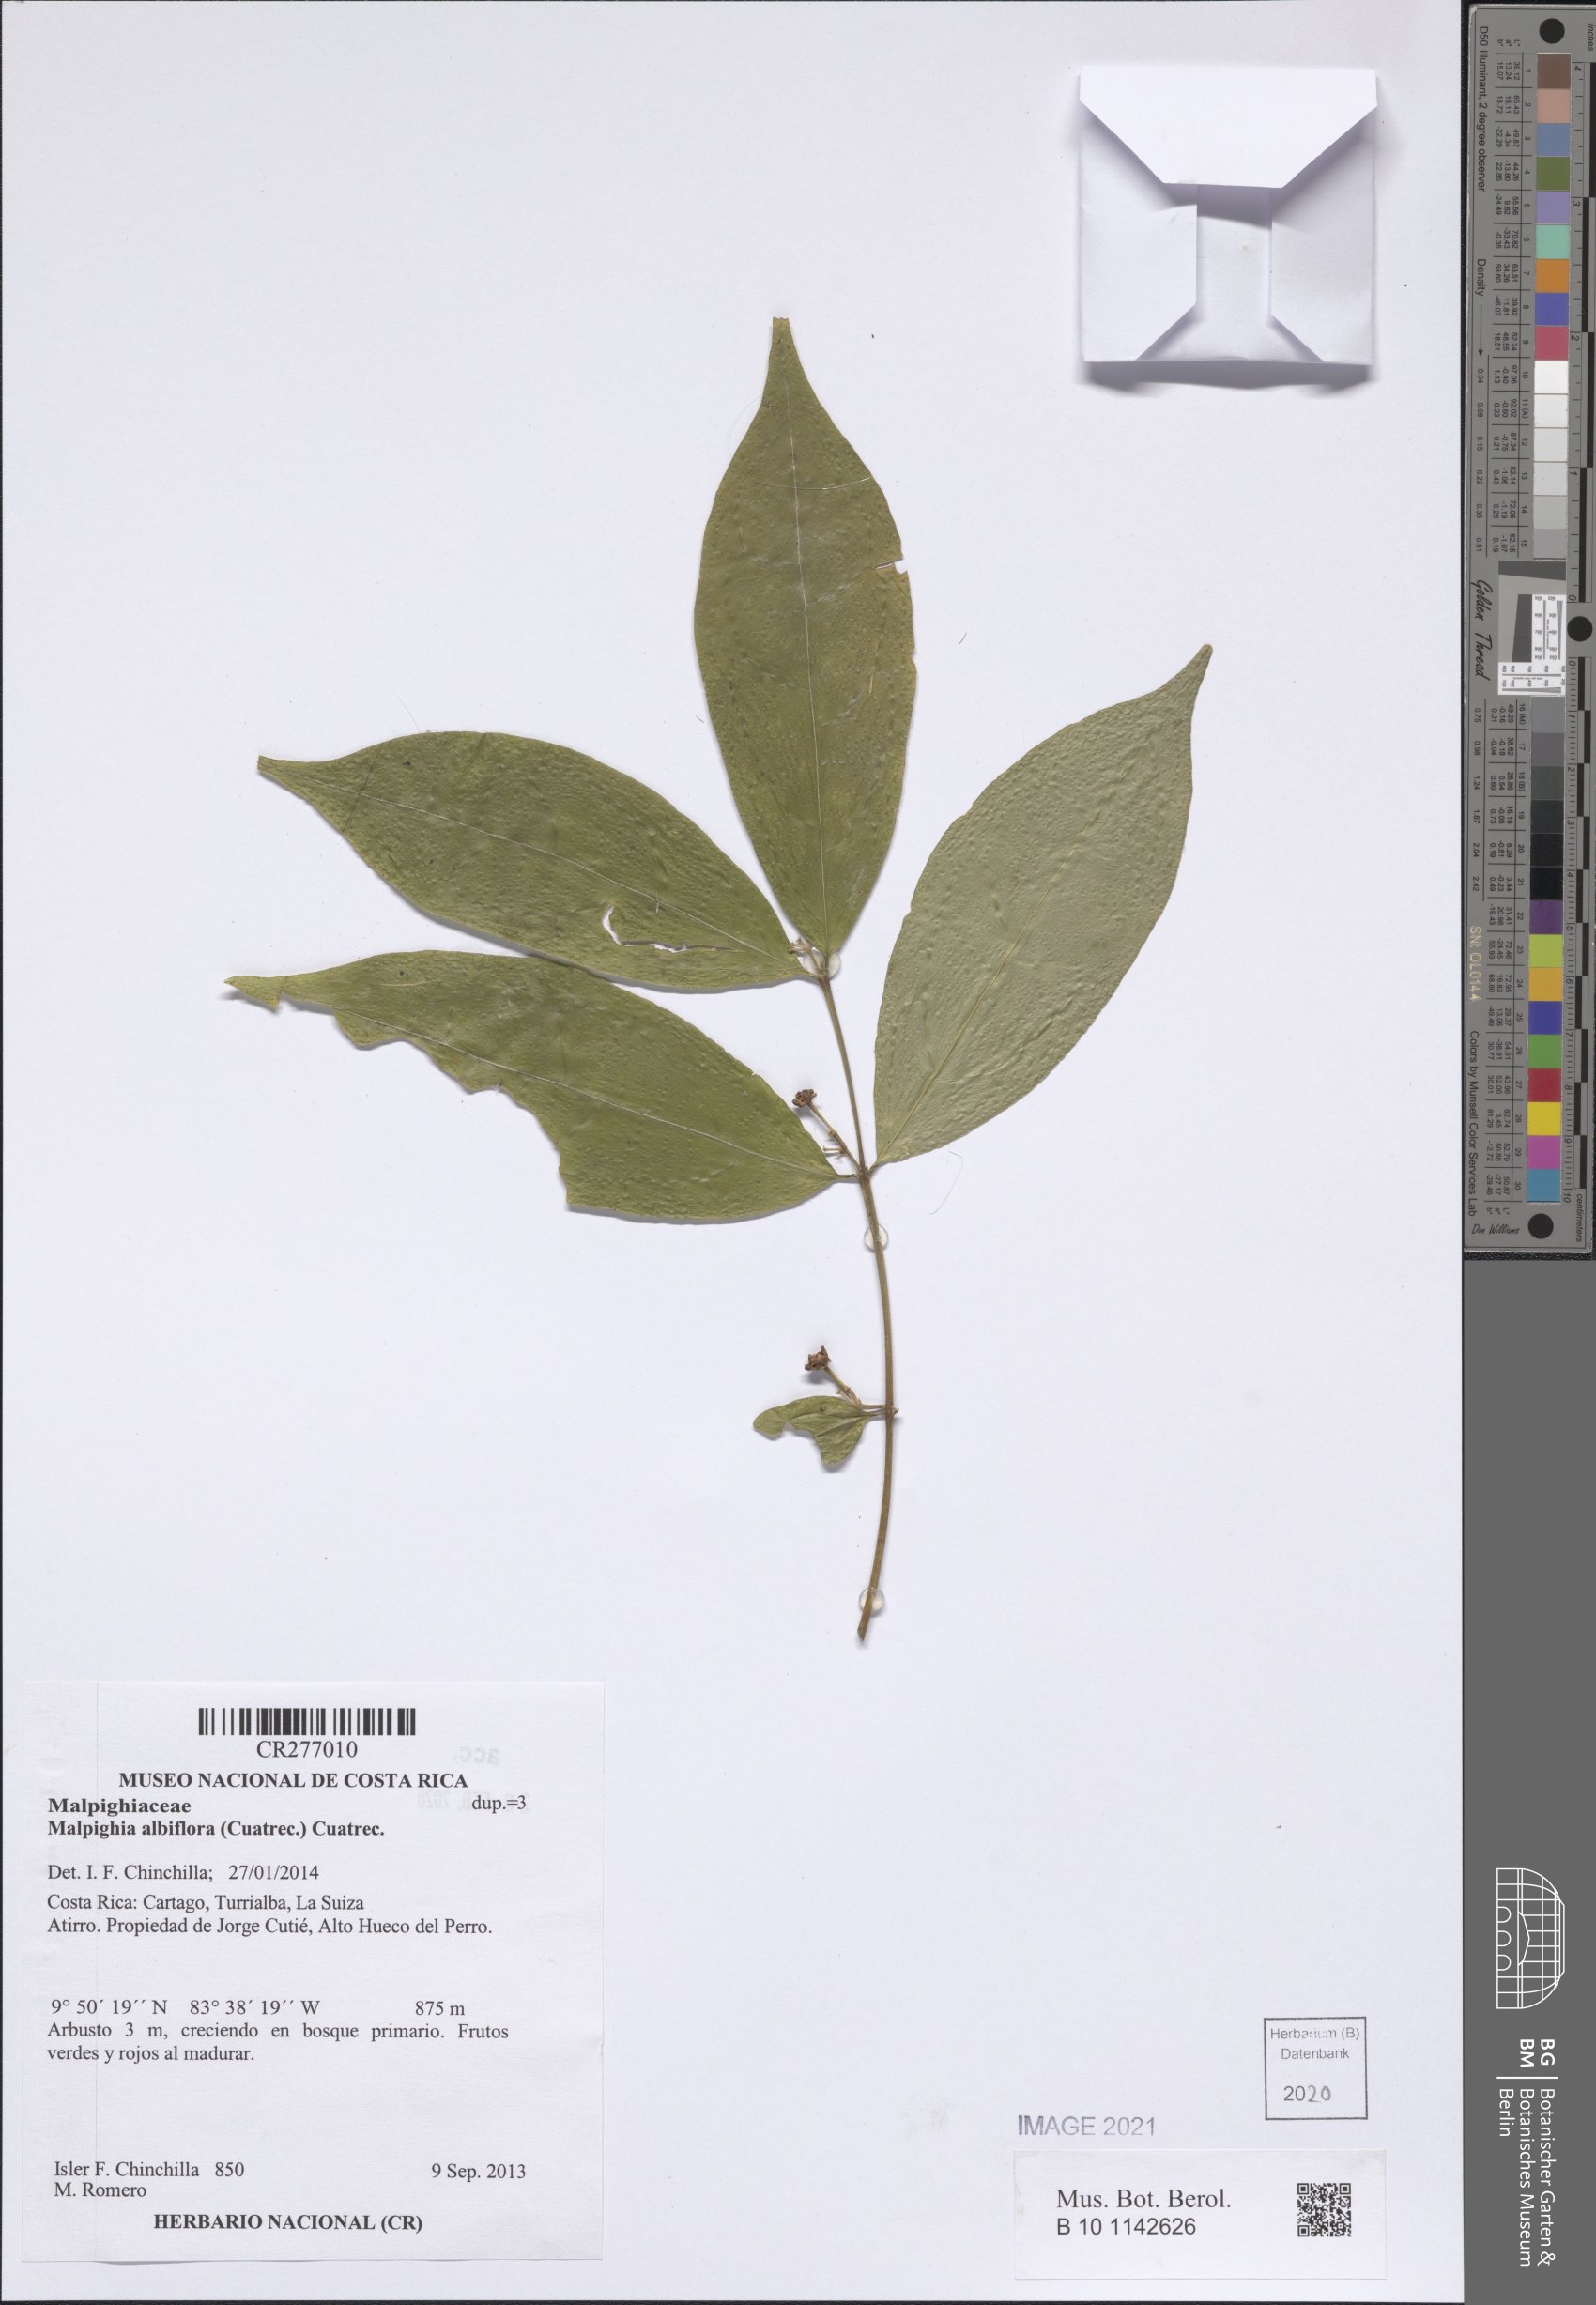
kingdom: Plantae
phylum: Tracheophyta
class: Magnoliopsida
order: Malpighiales
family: Malpighiaceae
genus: Malpighia
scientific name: Malpighia albiflora
